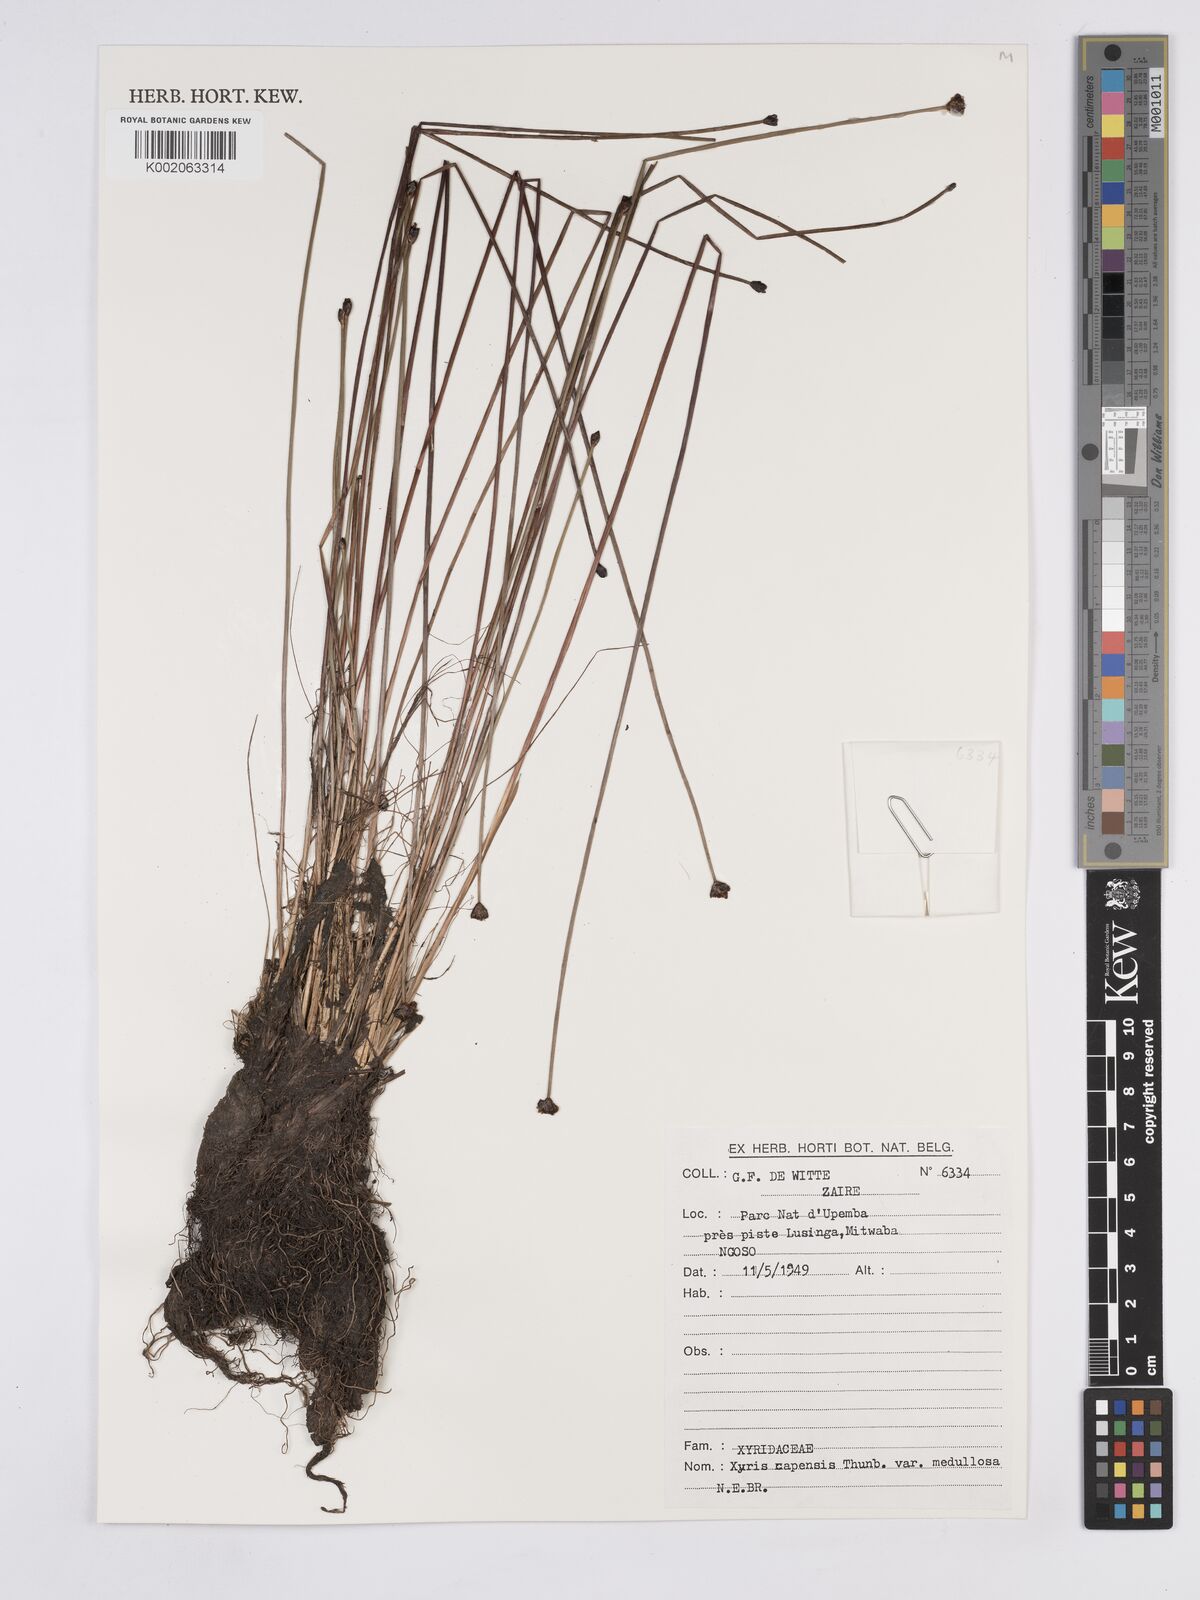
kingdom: Plantae
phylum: Tracheophyta
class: Liliopsida
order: Poales
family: Xyridaceae
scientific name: Xyridaceae
